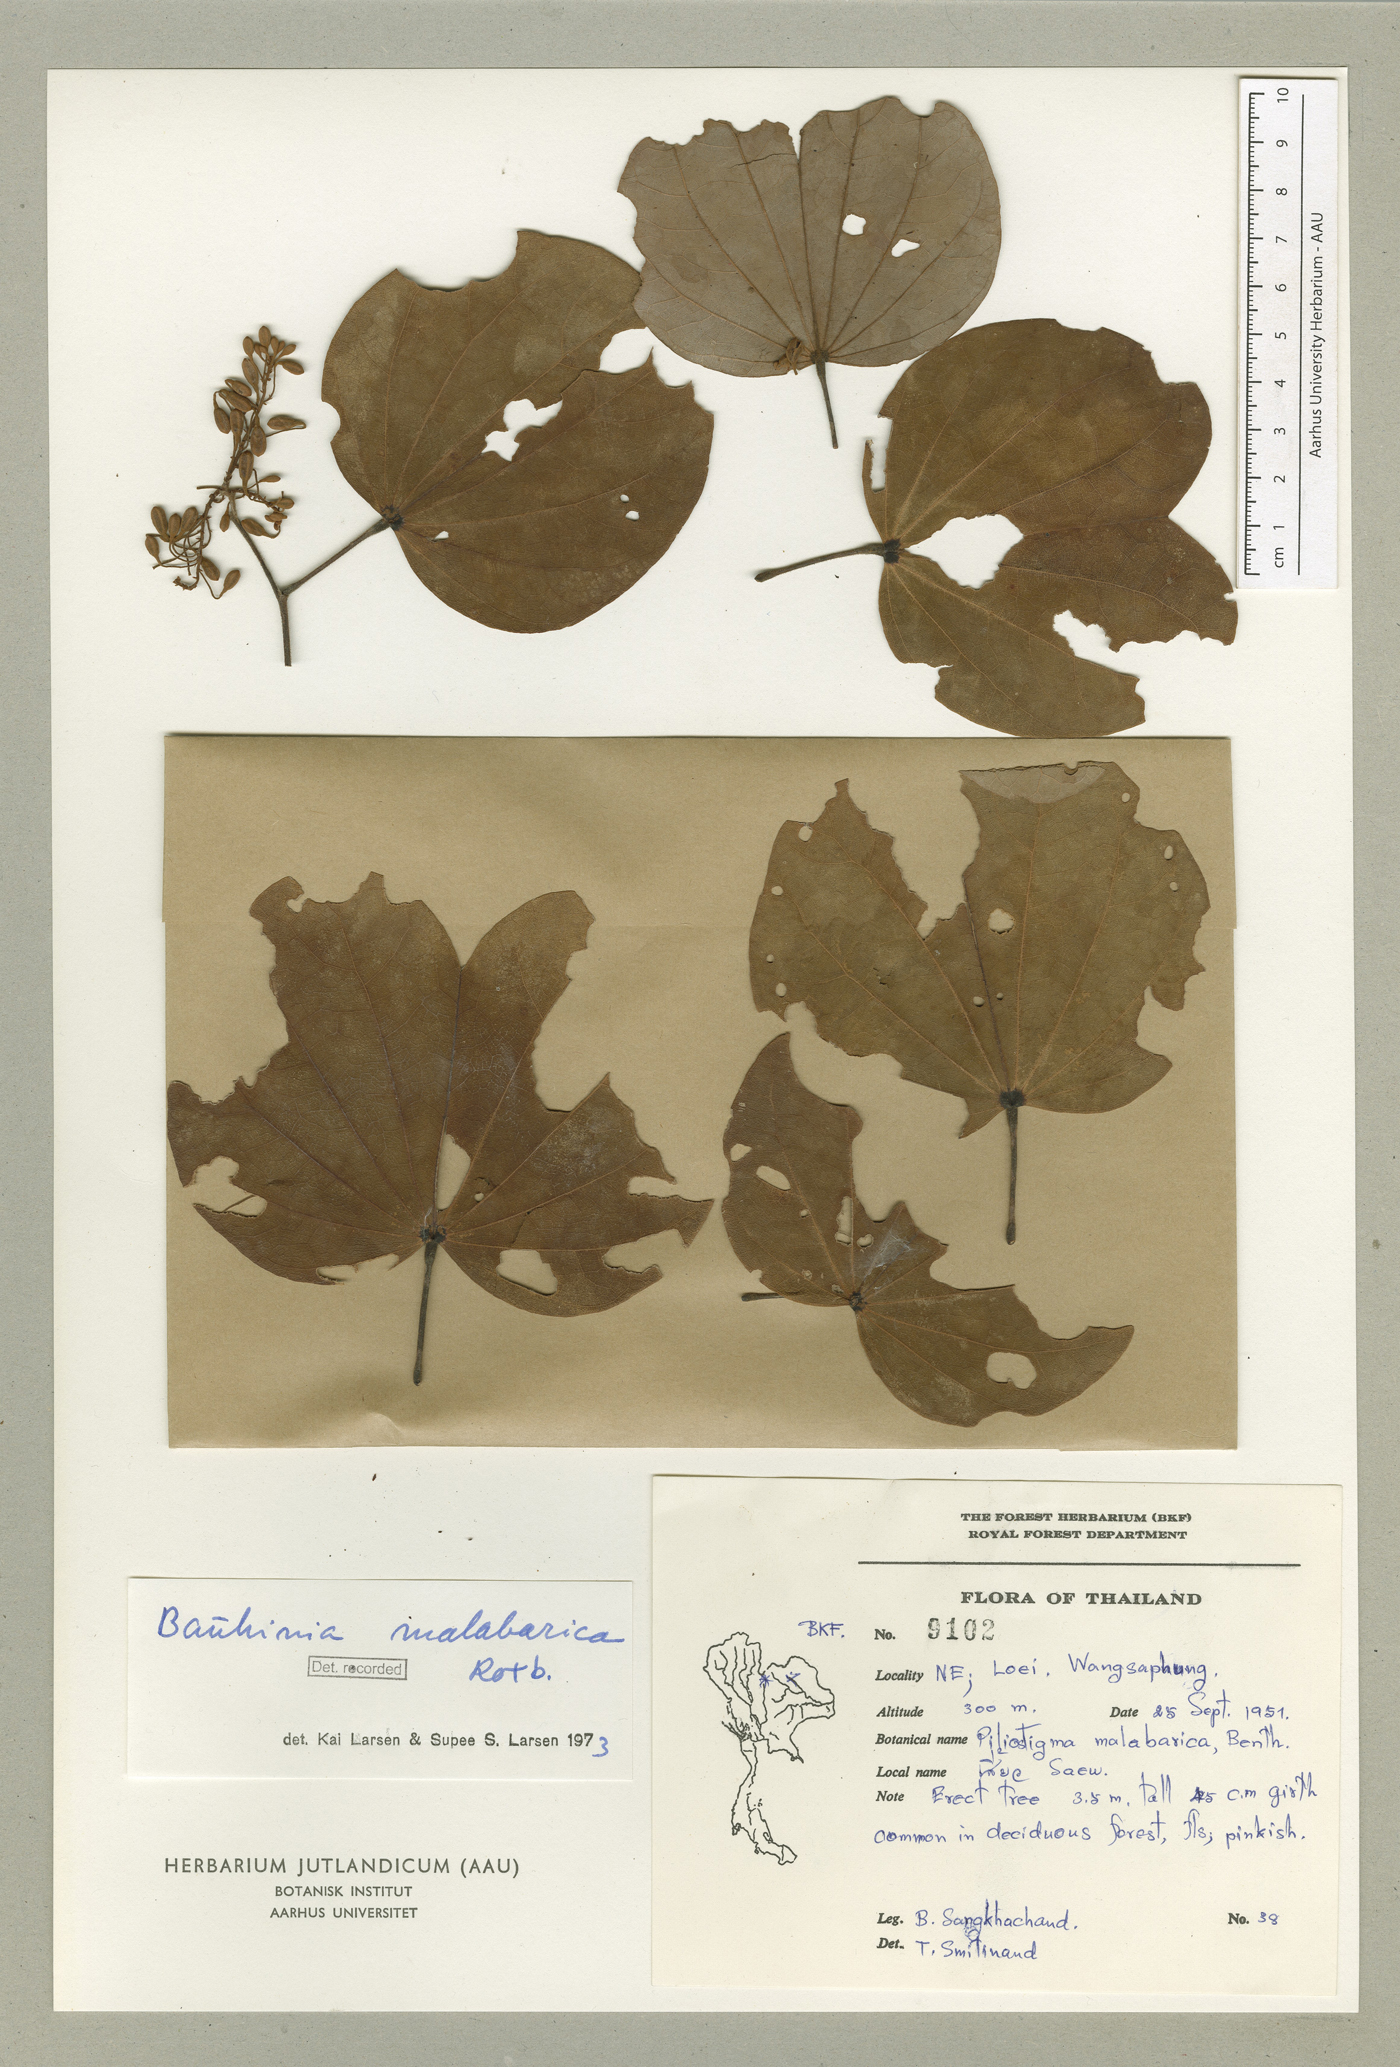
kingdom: Plantae
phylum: Tracheophyta
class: Magnoliopsida
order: Fabales
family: Fabaceae
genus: Piliostigma
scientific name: Piliostigma malabaricum
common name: Malabar bauhinia
